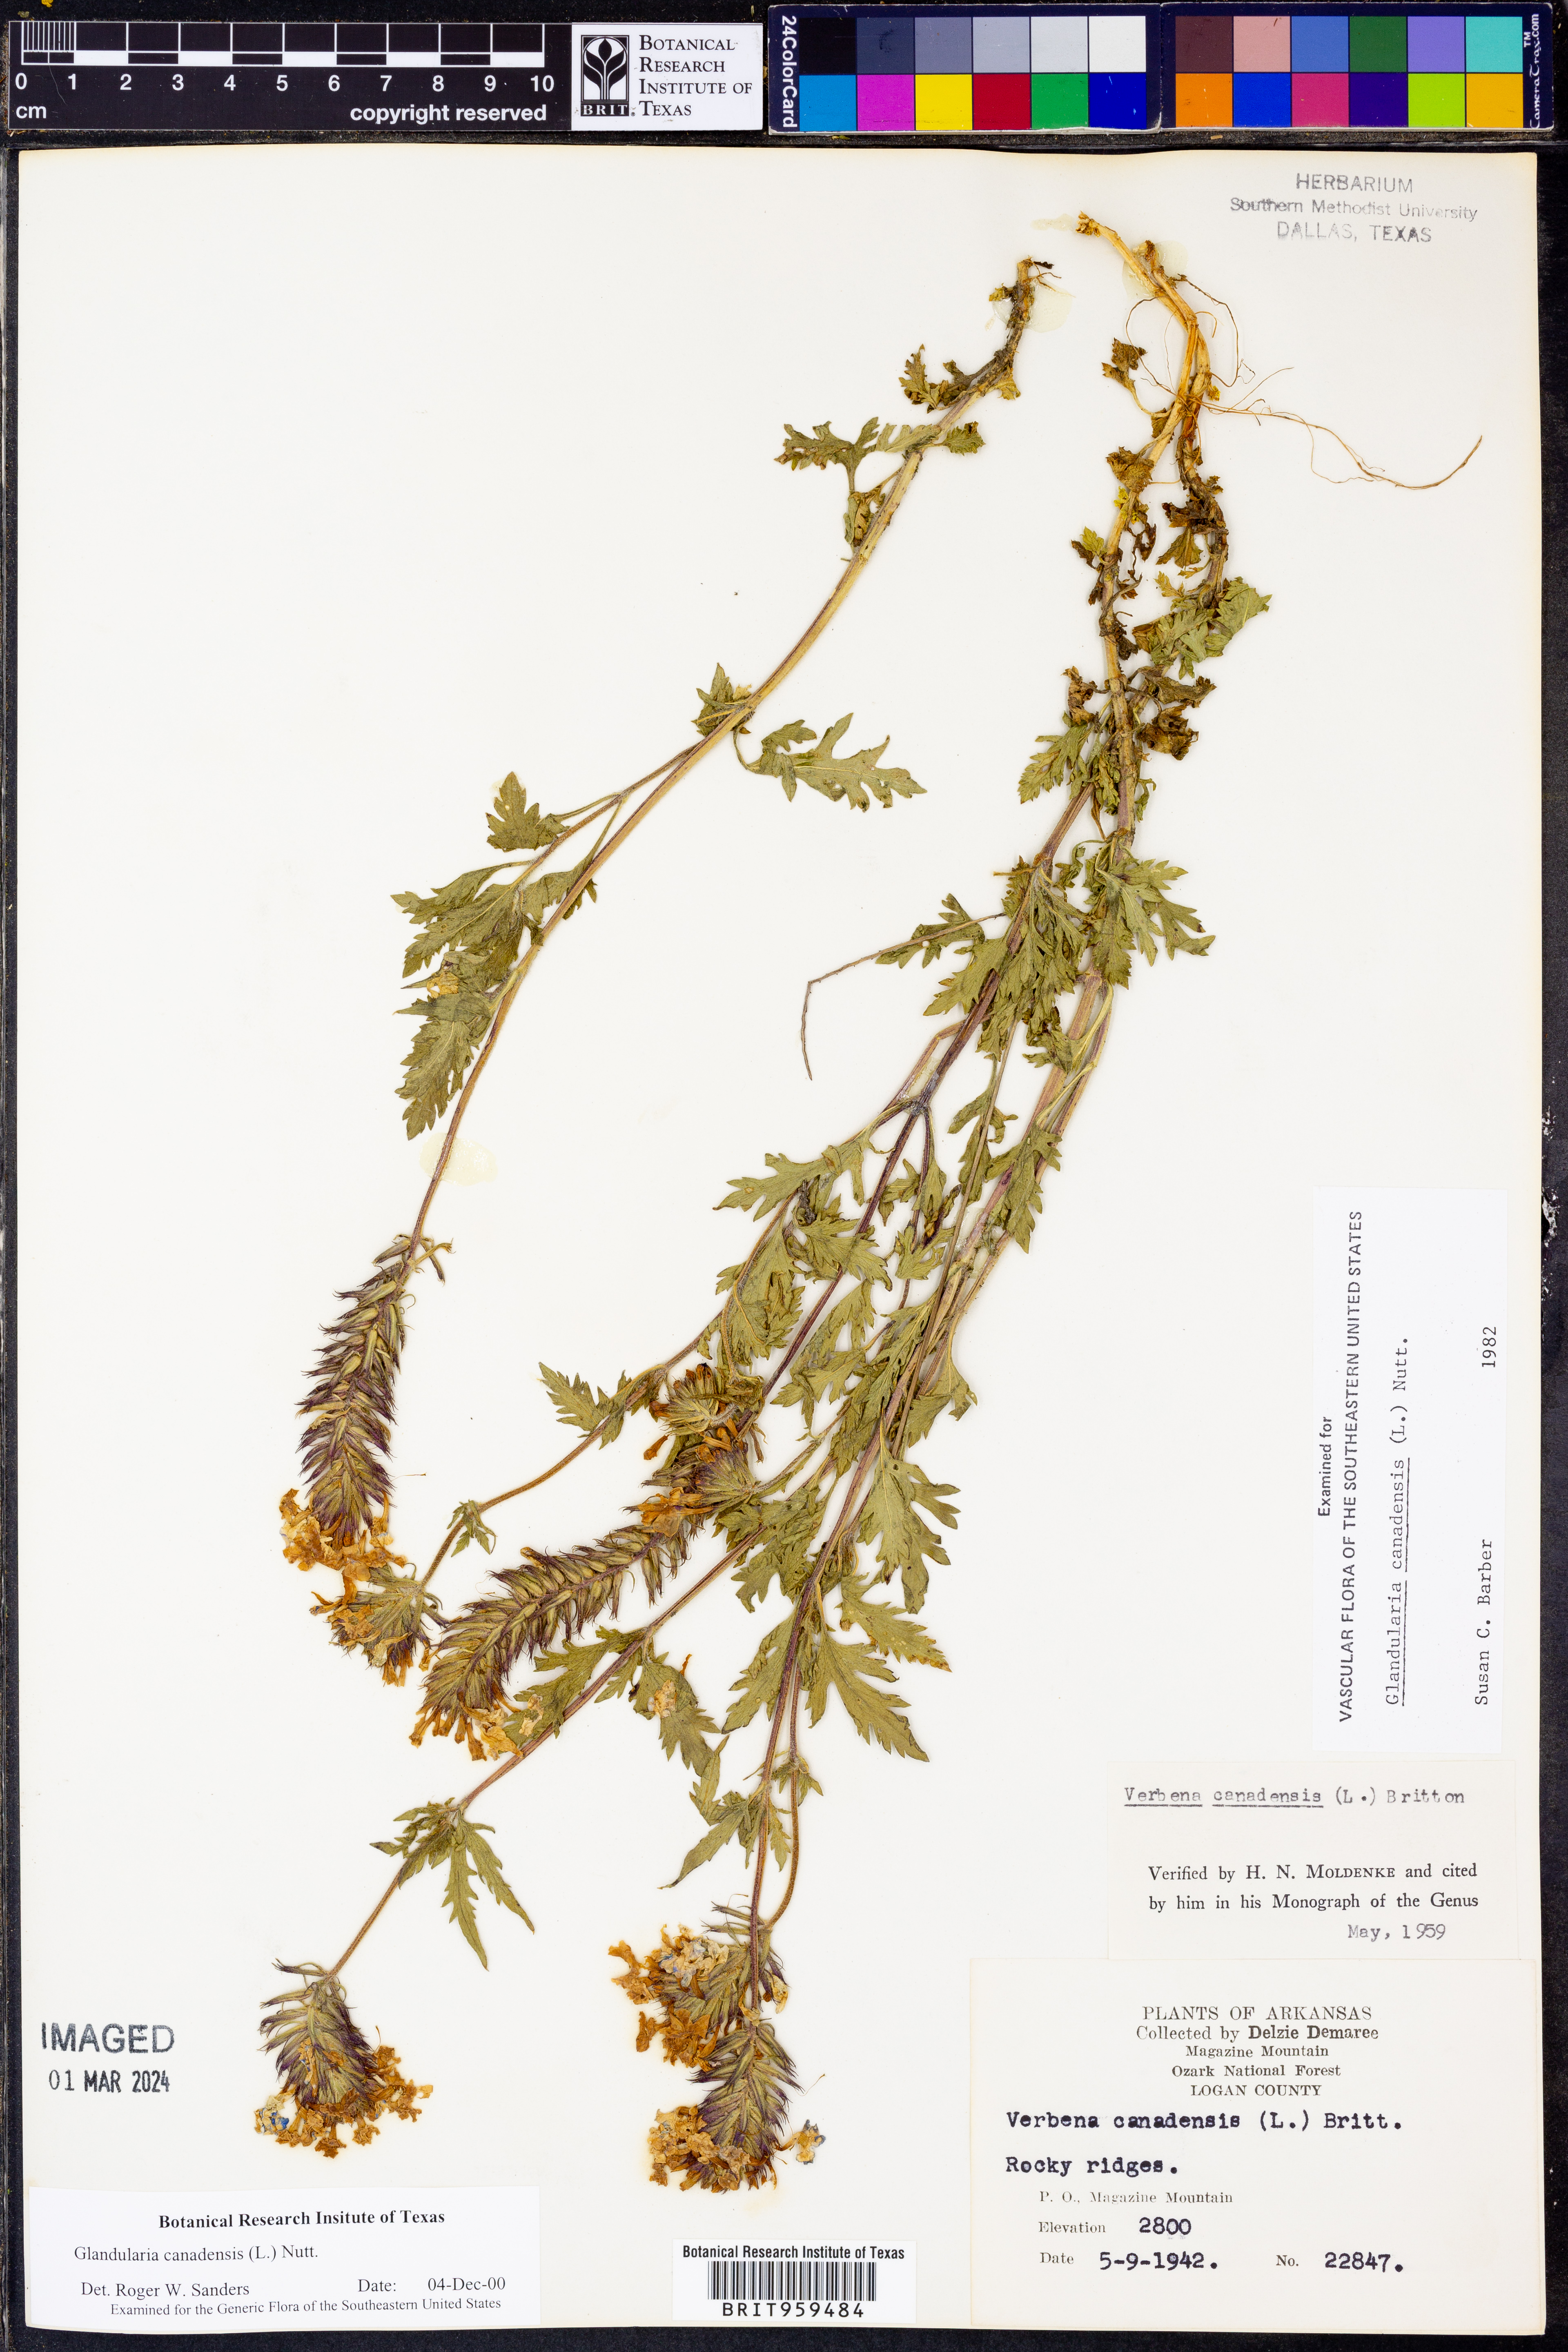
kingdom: Plantae
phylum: Tracheophyta
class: Magnoliopsida
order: Lamiales
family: Verbenaceae
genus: Verbena
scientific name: Verbena canadensis
